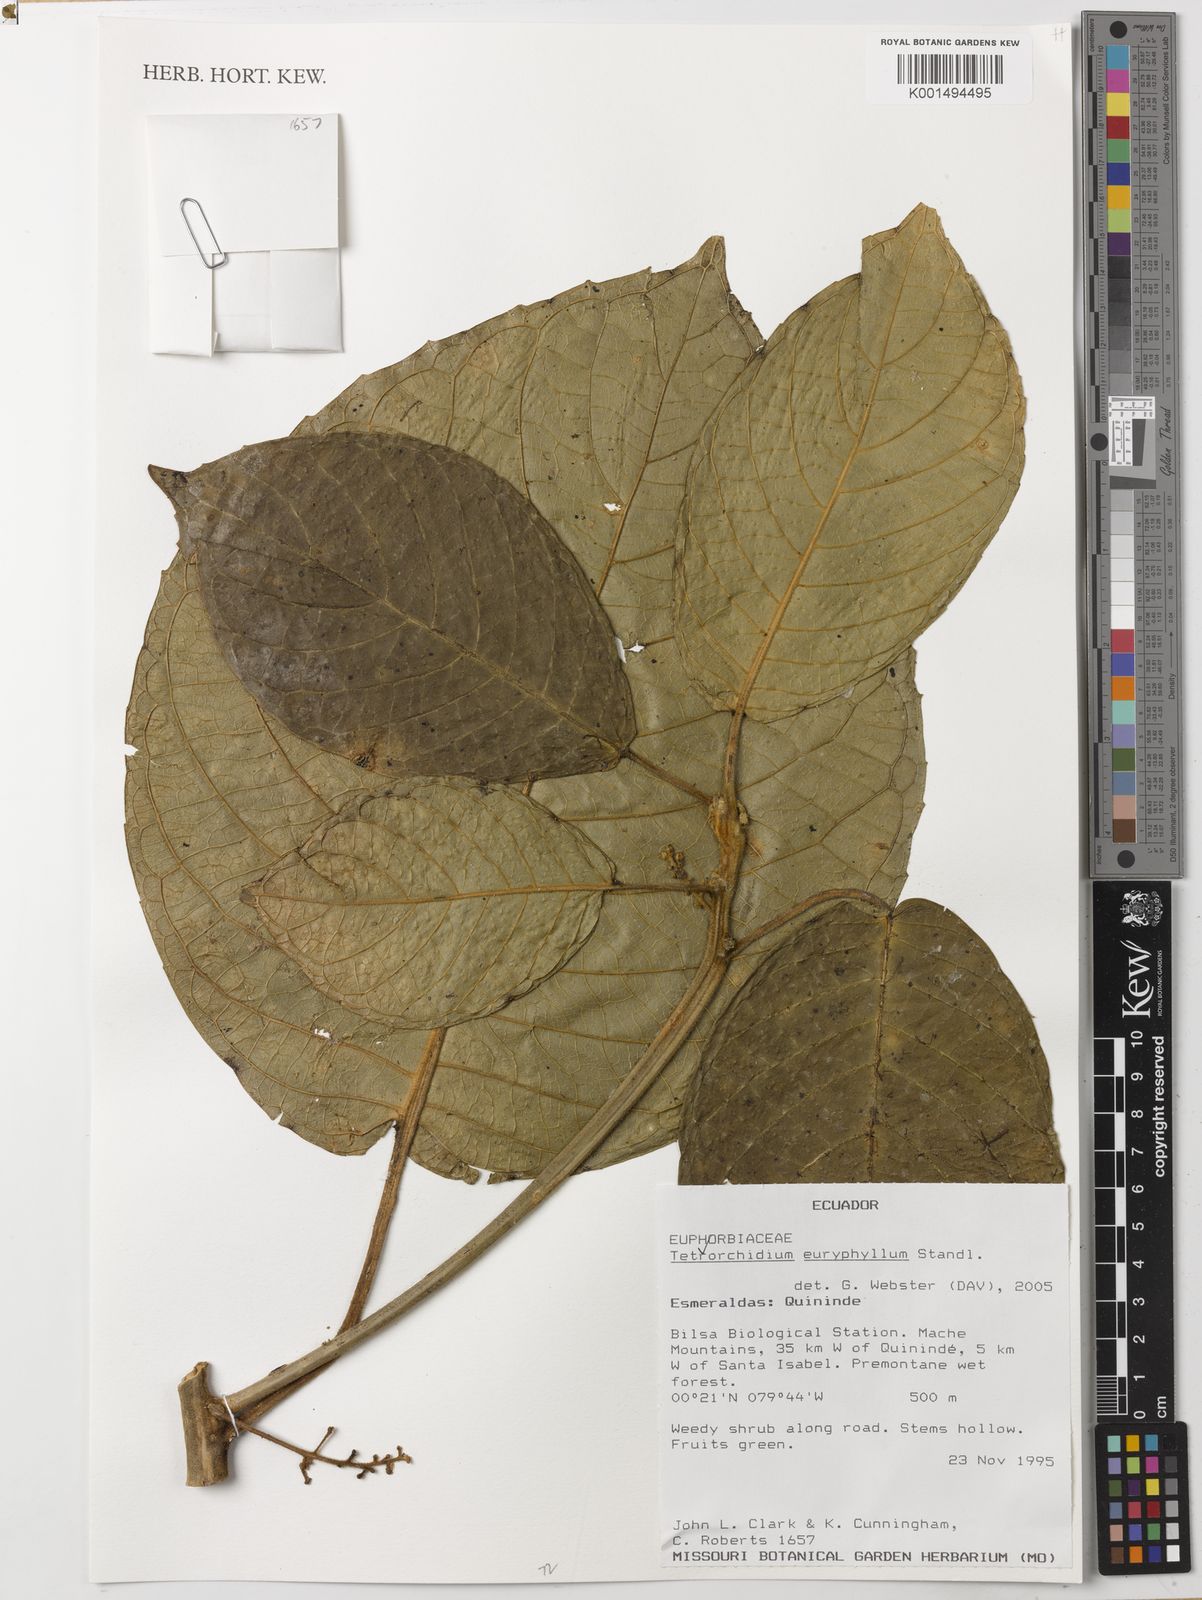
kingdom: Plantae
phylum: Tracheophyta
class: Magnoliopsida
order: Malpighiales
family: Euphorbiaceae
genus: Tetrorchidium
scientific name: Tetrorchidium euryphyllum
